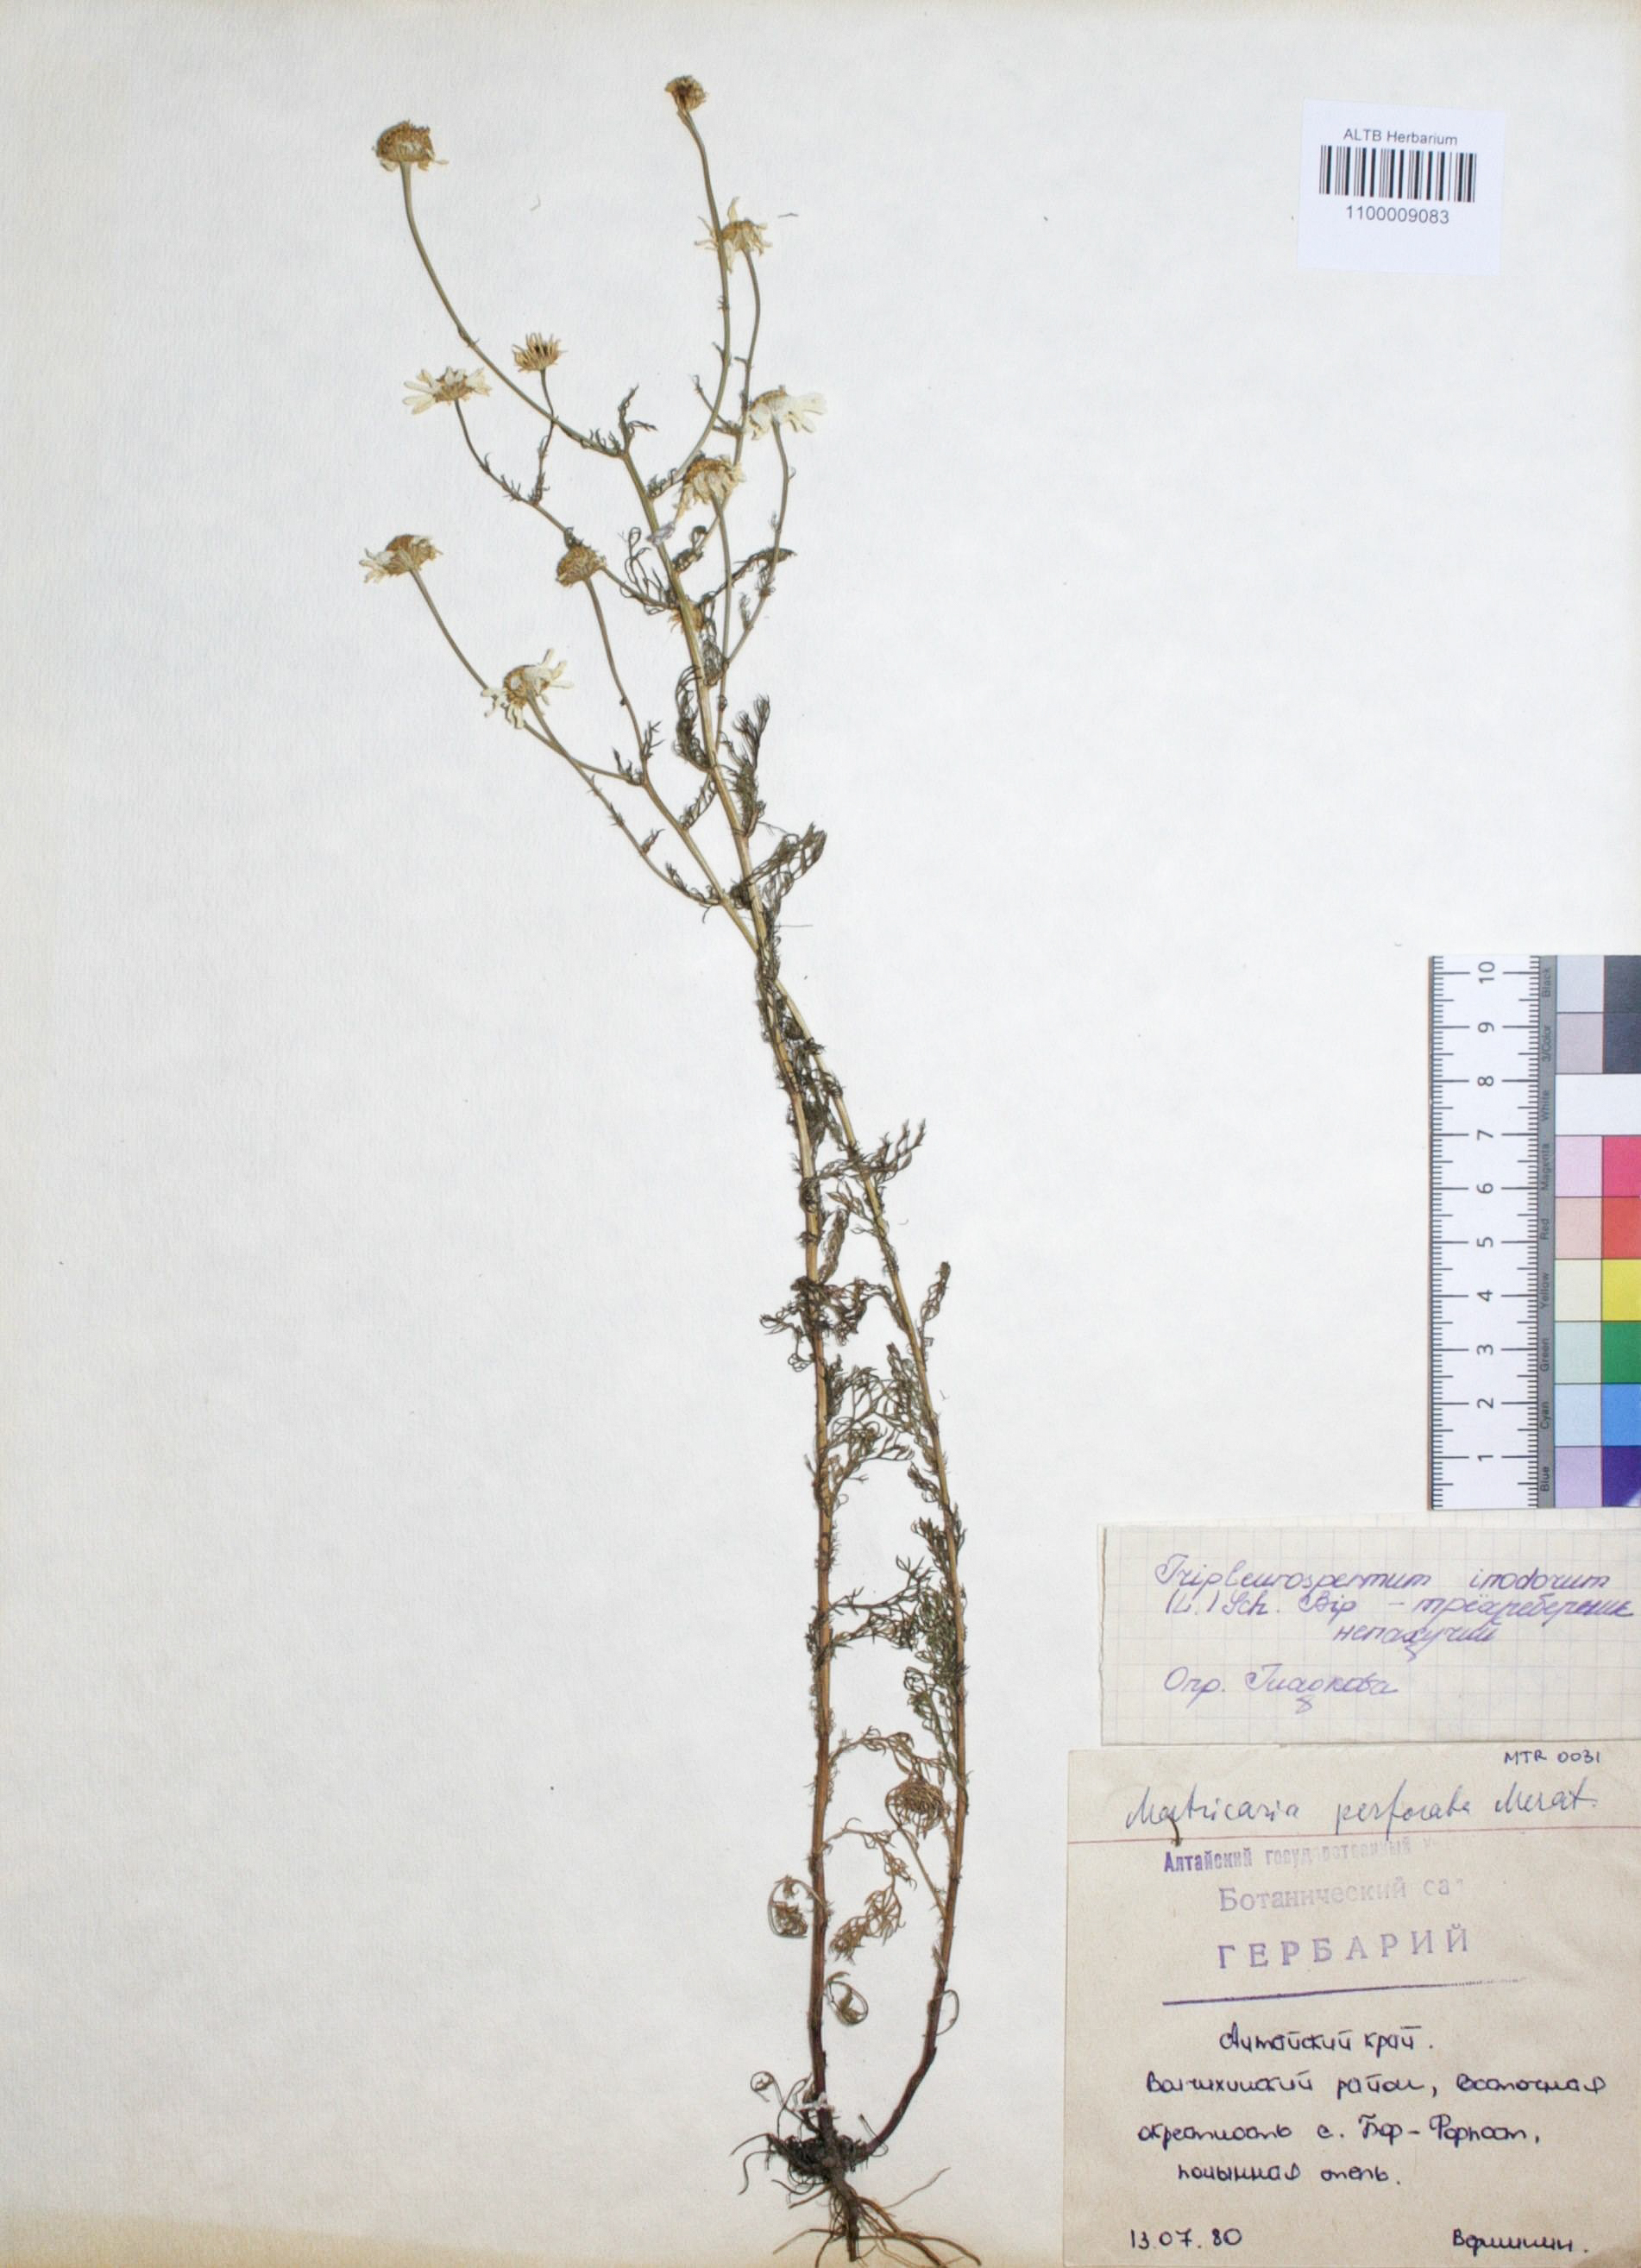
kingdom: Plantae
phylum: Tracheophyta
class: Magnoliopsida
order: Asterales
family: Asteraceae
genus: Tripleurospermum
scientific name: Tripleurospermum inodorum
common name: Scentless mayweed
